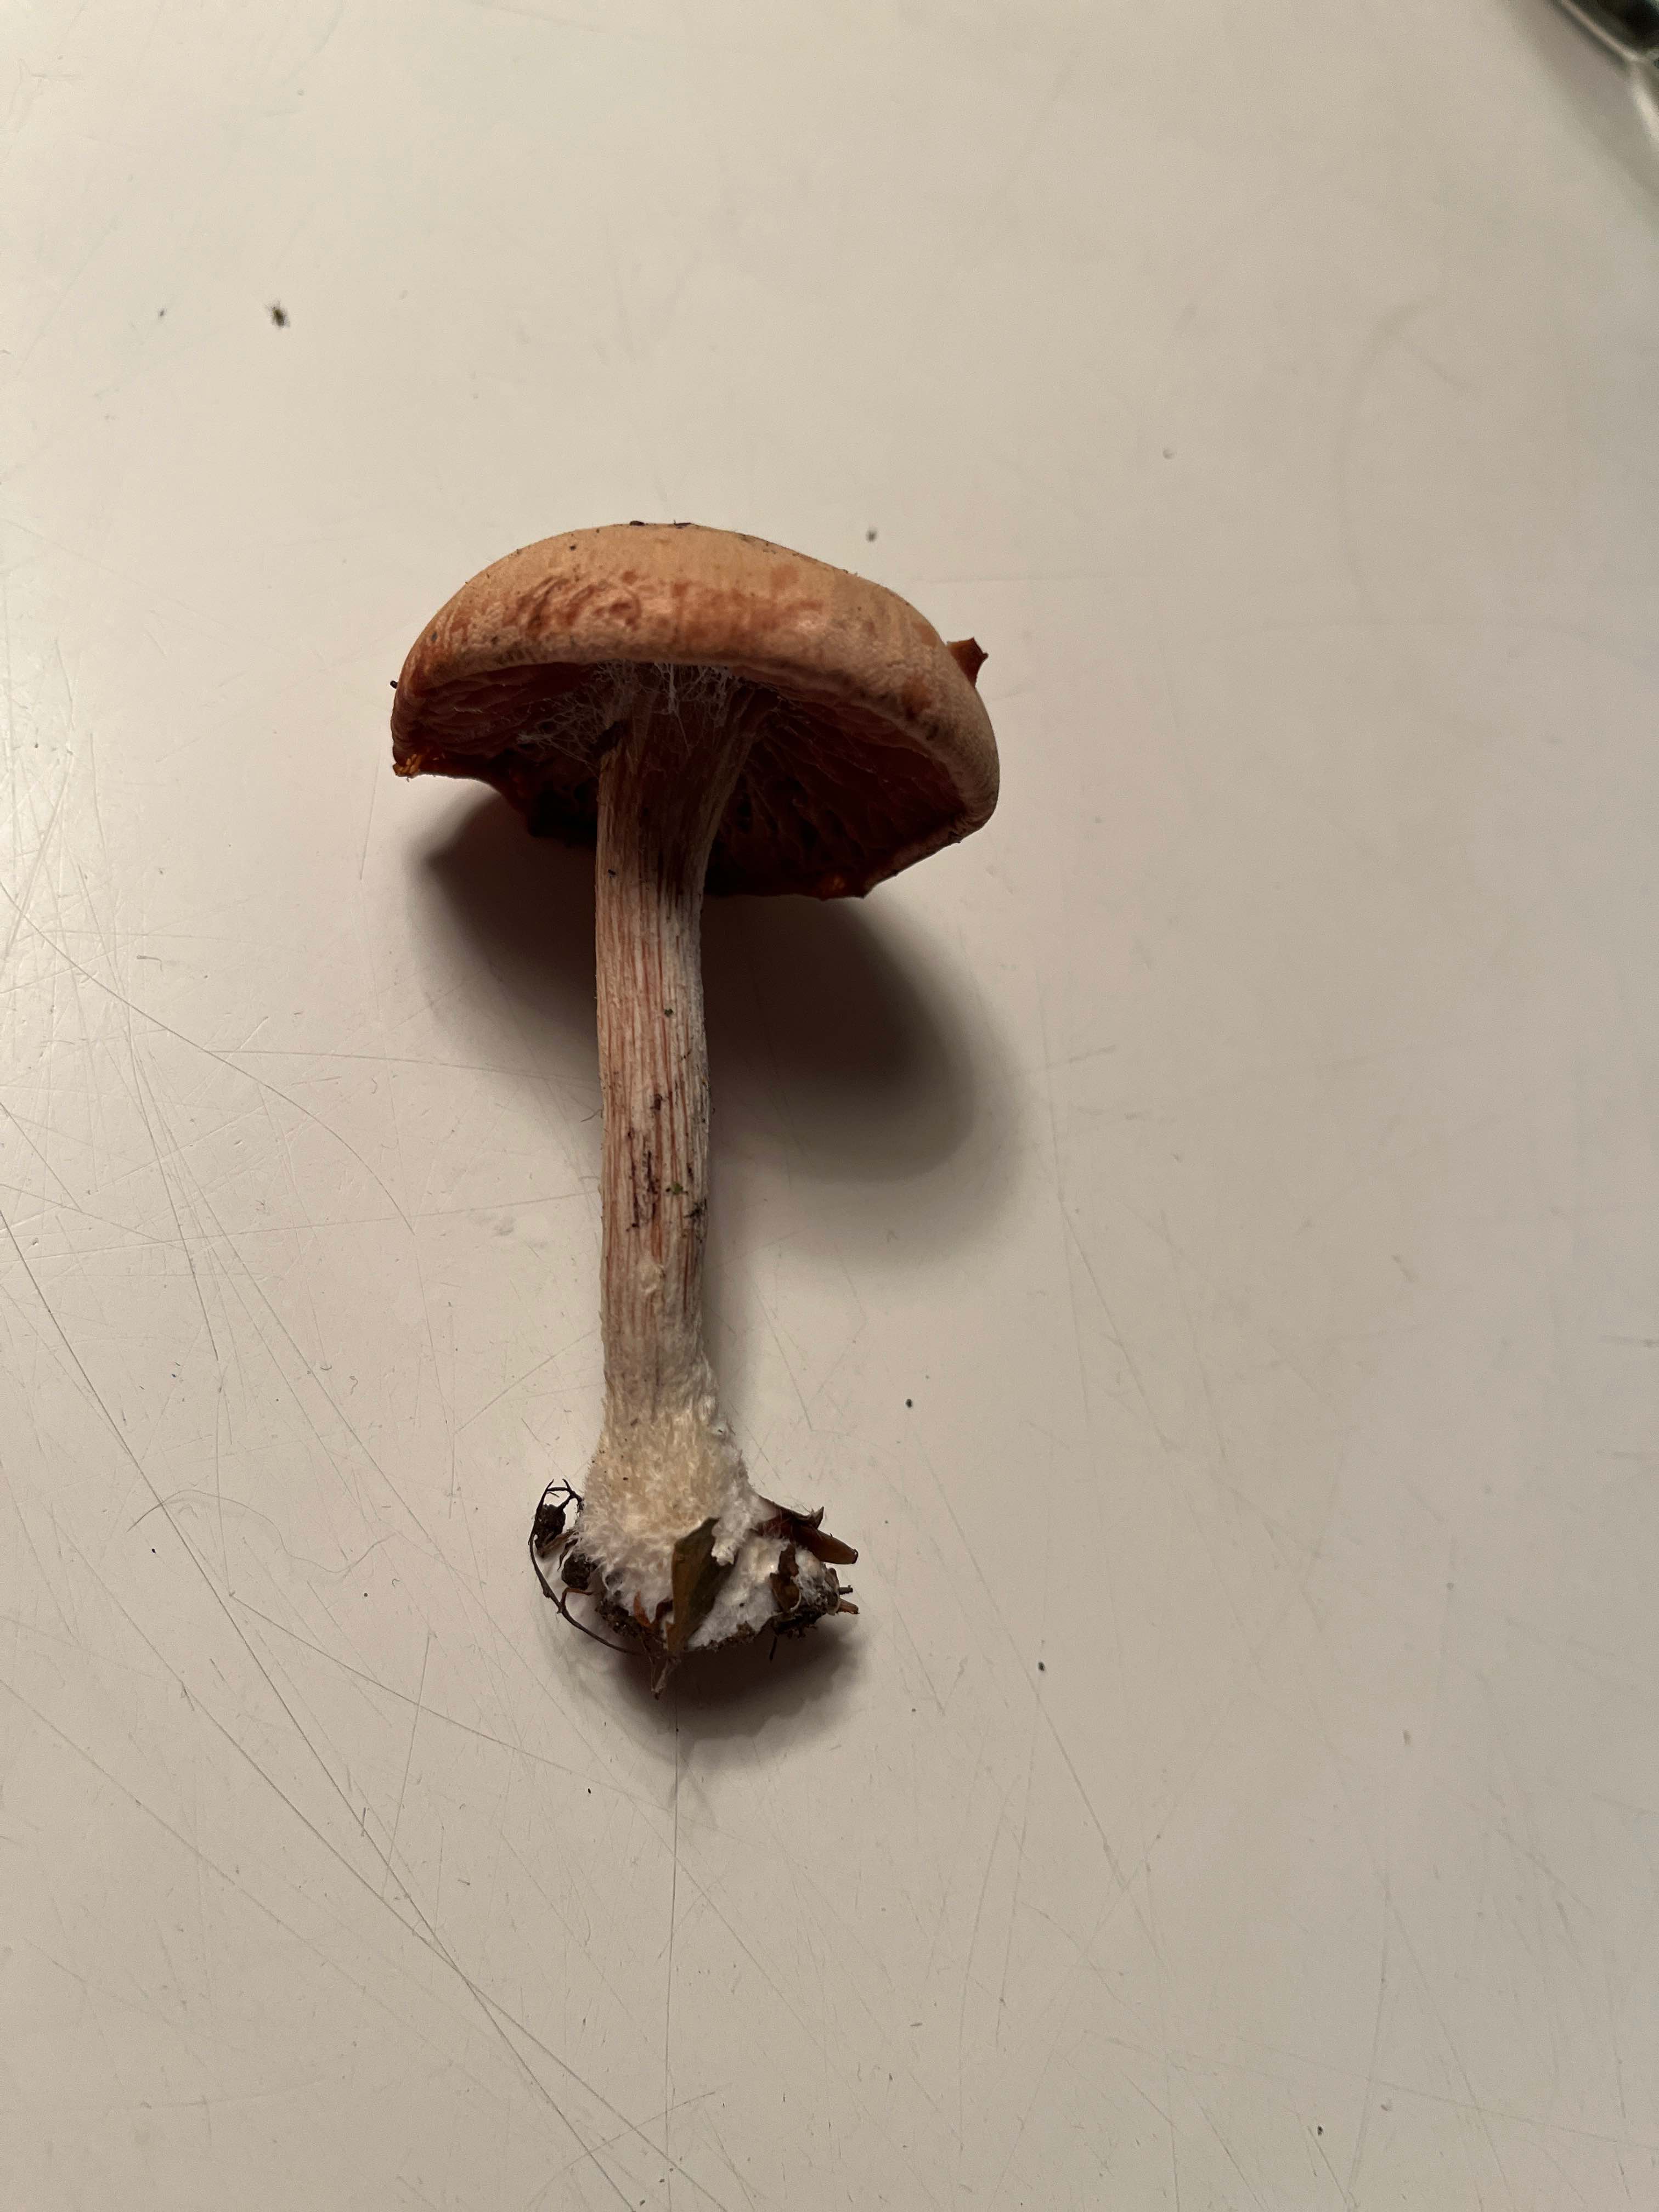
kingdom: Fungi
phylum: Basidiomycota
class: Agaricomycetes
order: Agaricales
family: Hydnangiaceae
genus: Laccaria
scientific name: Laccaria proxima
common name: stor ametysthat
